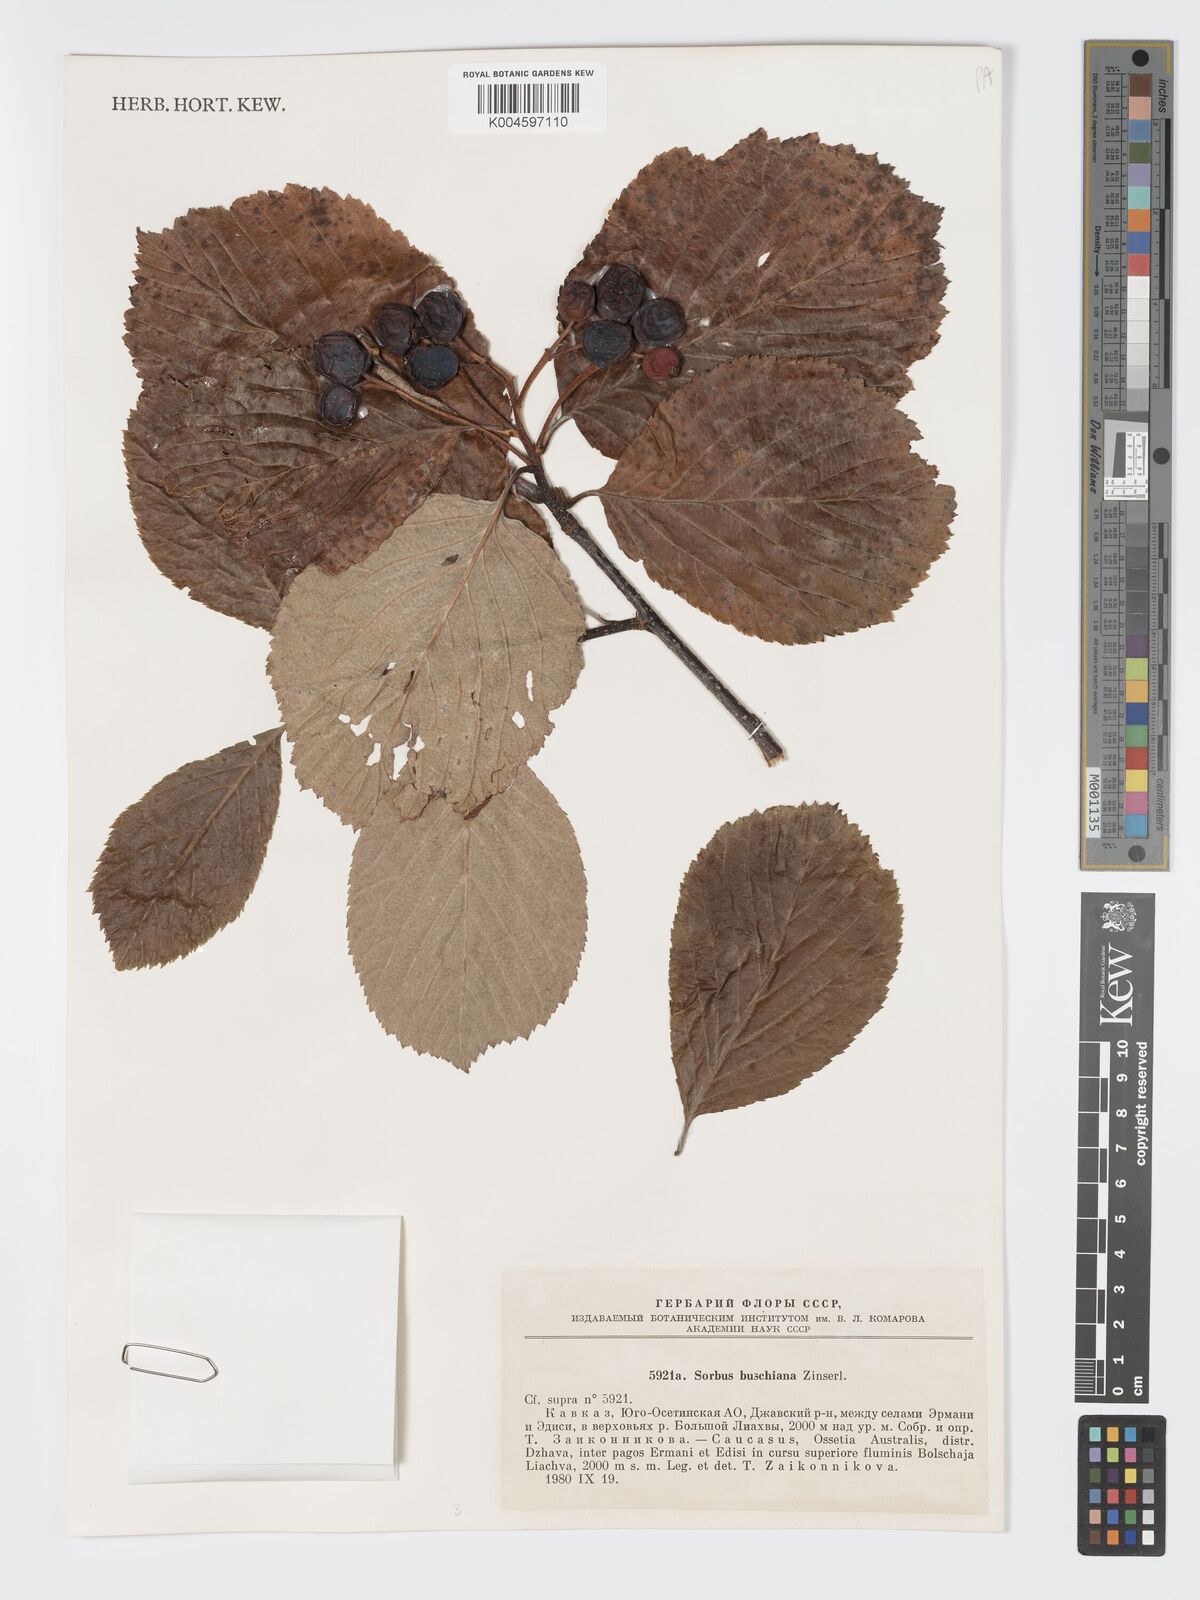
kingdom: Plantae
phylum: Tracheophyta
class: Magnoliopsida
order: Rosales
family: Rosaceae
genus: Sorbus
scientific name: Sorbus subfusca
